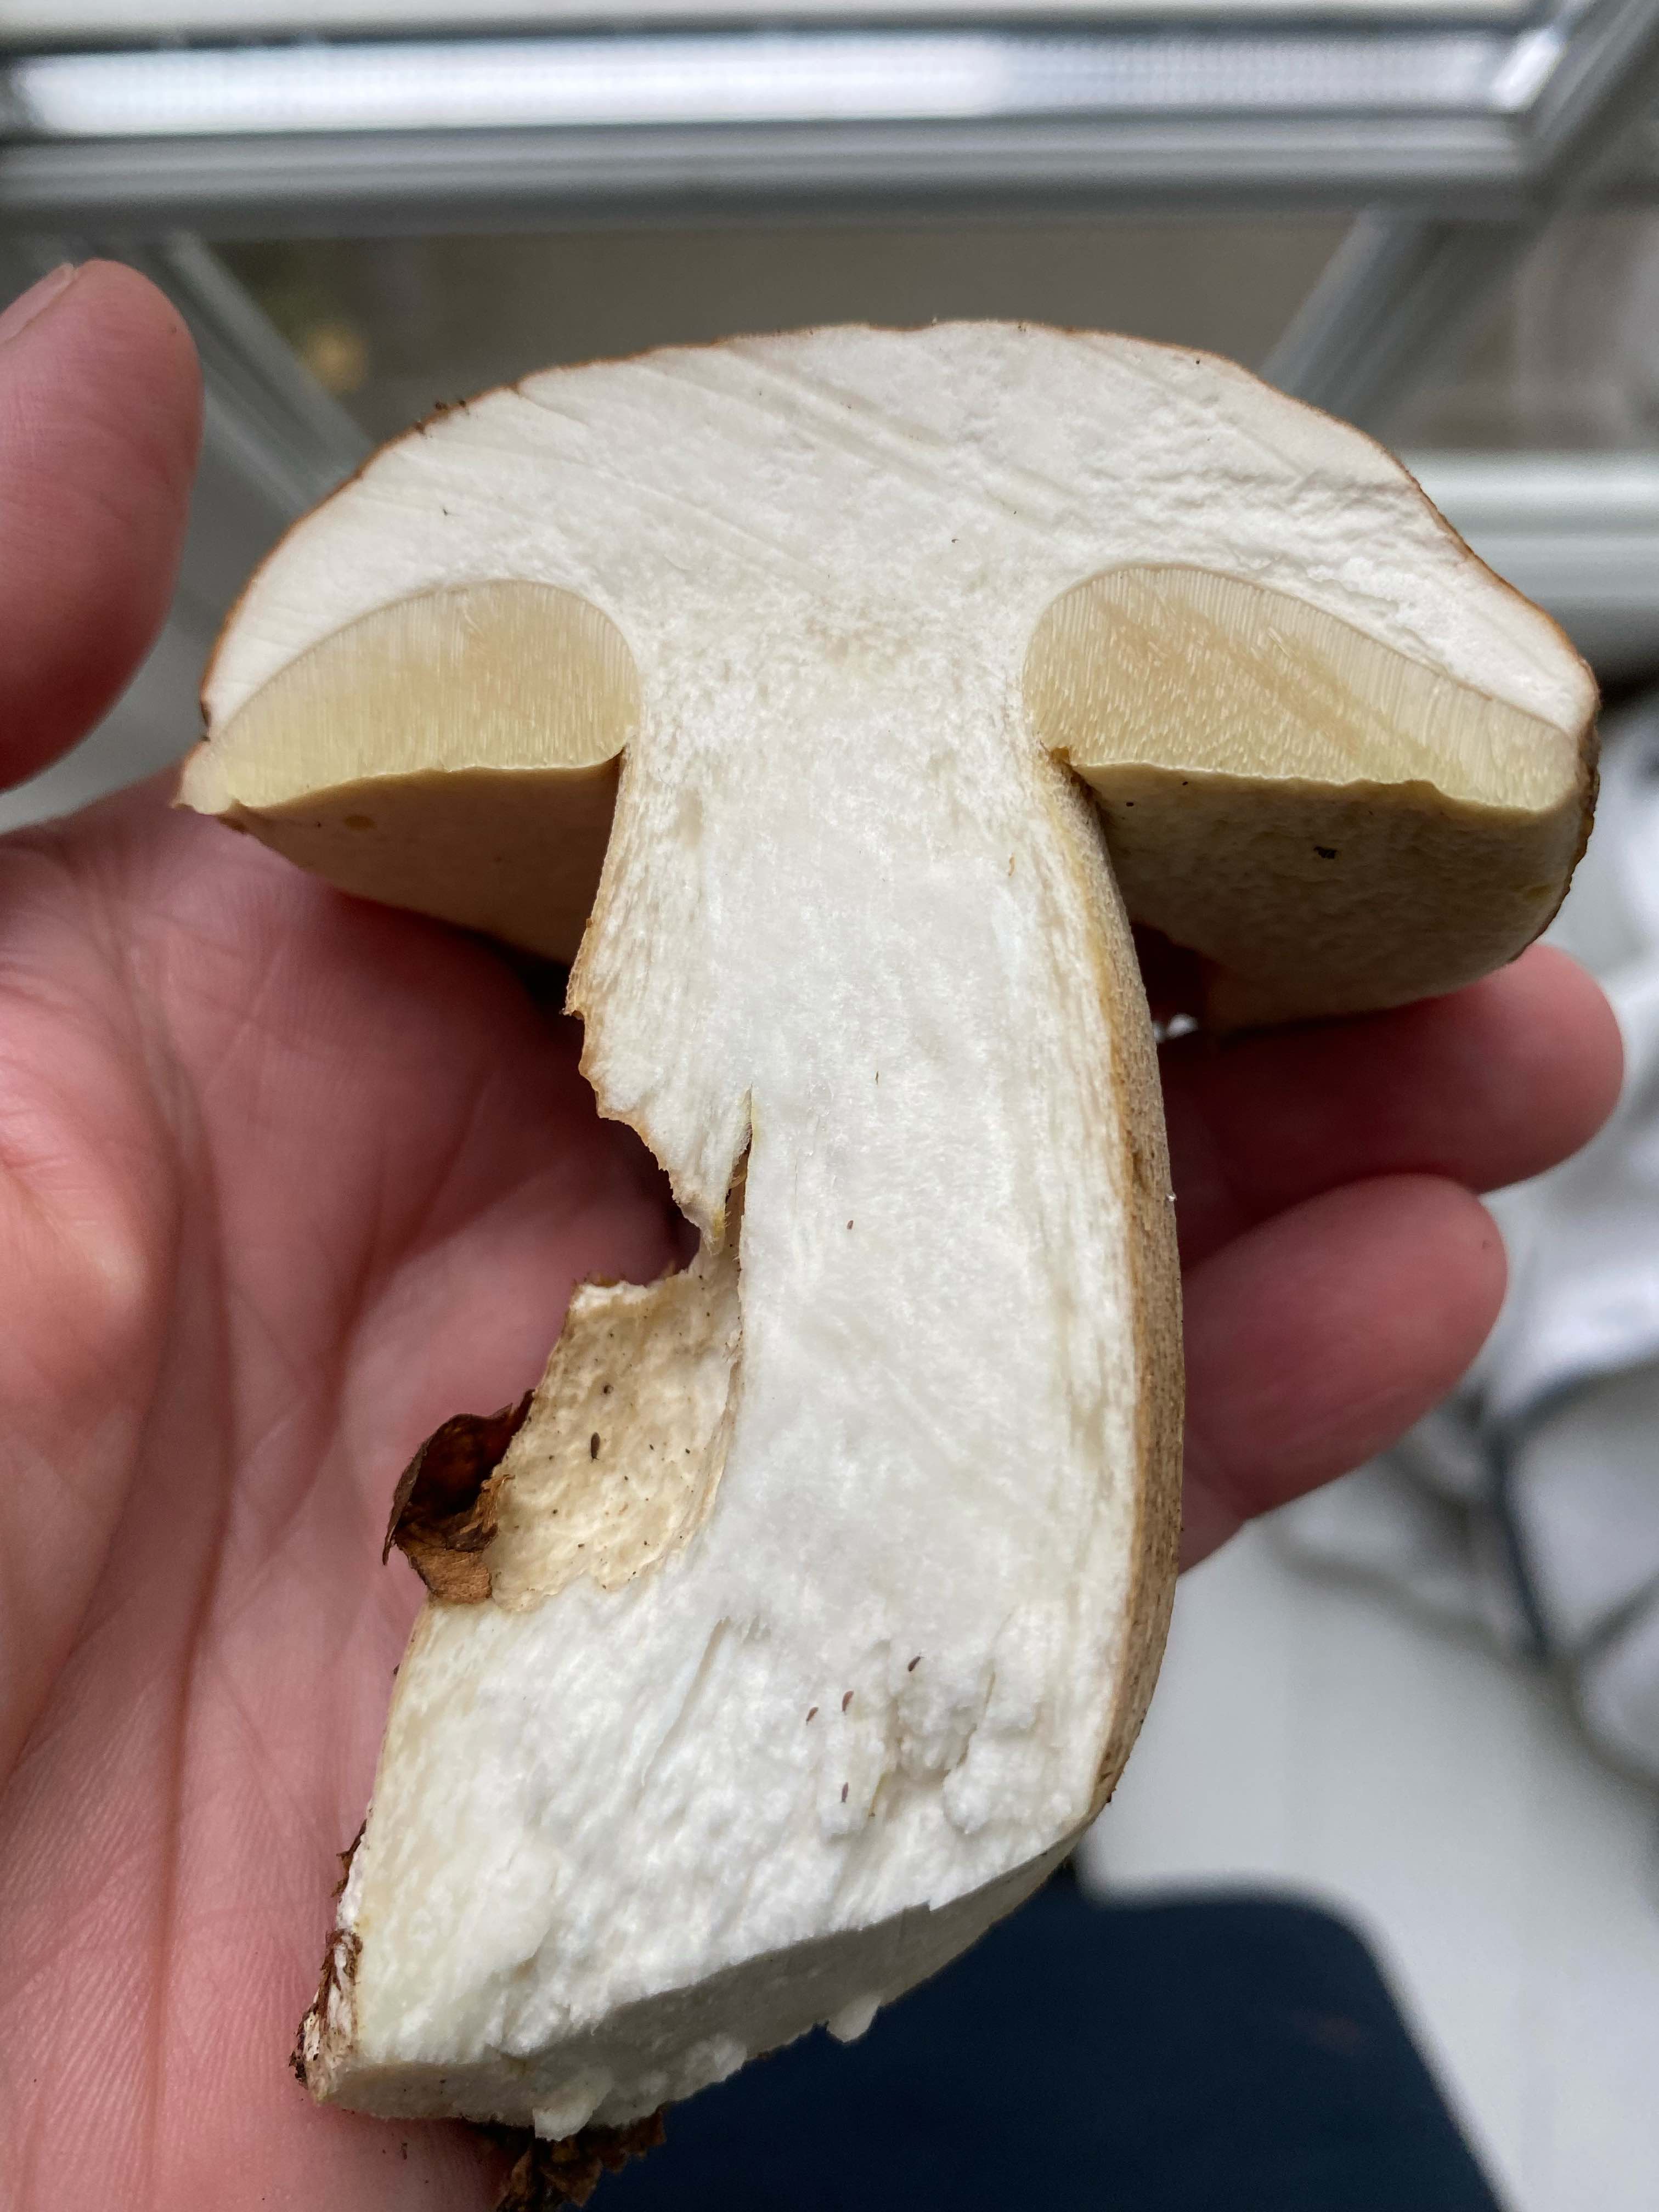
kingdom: Fungi
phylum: Basidiomycota
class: Agaricomycetes
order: Boletales
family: Boletaceae
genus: Boletus
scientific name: Boletus reticulatus
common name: sommer-rørhat
